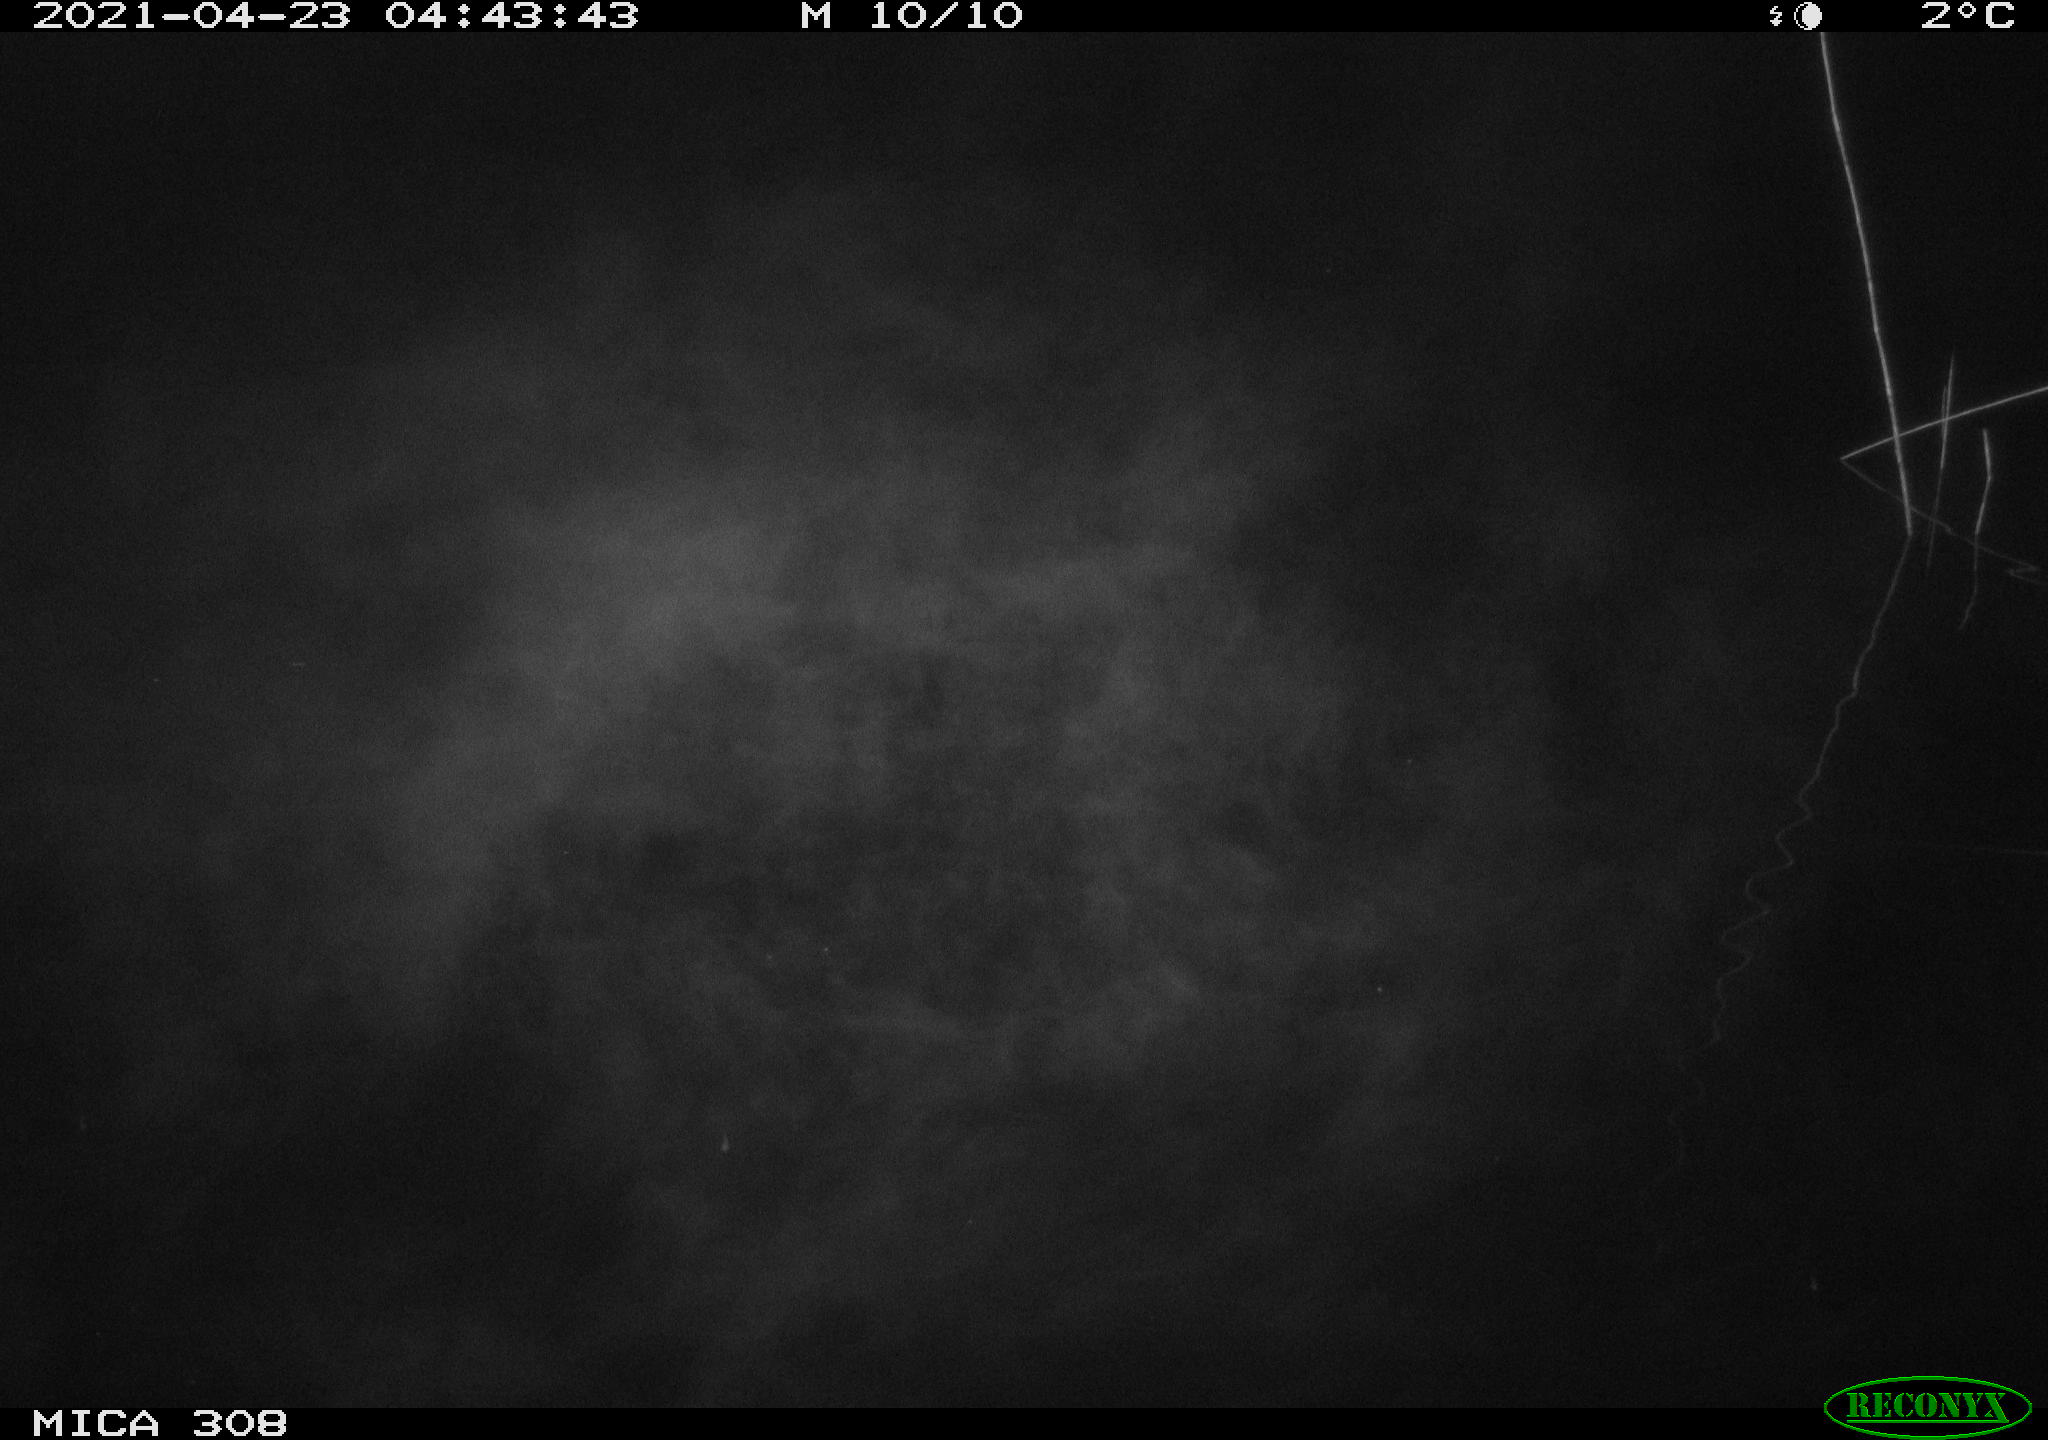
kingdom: Animalia
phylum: Chordata
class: Aves
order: Anseriformes
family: Anatidae
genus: Anas
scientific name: Anas platyrhynchos
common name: Mallard
